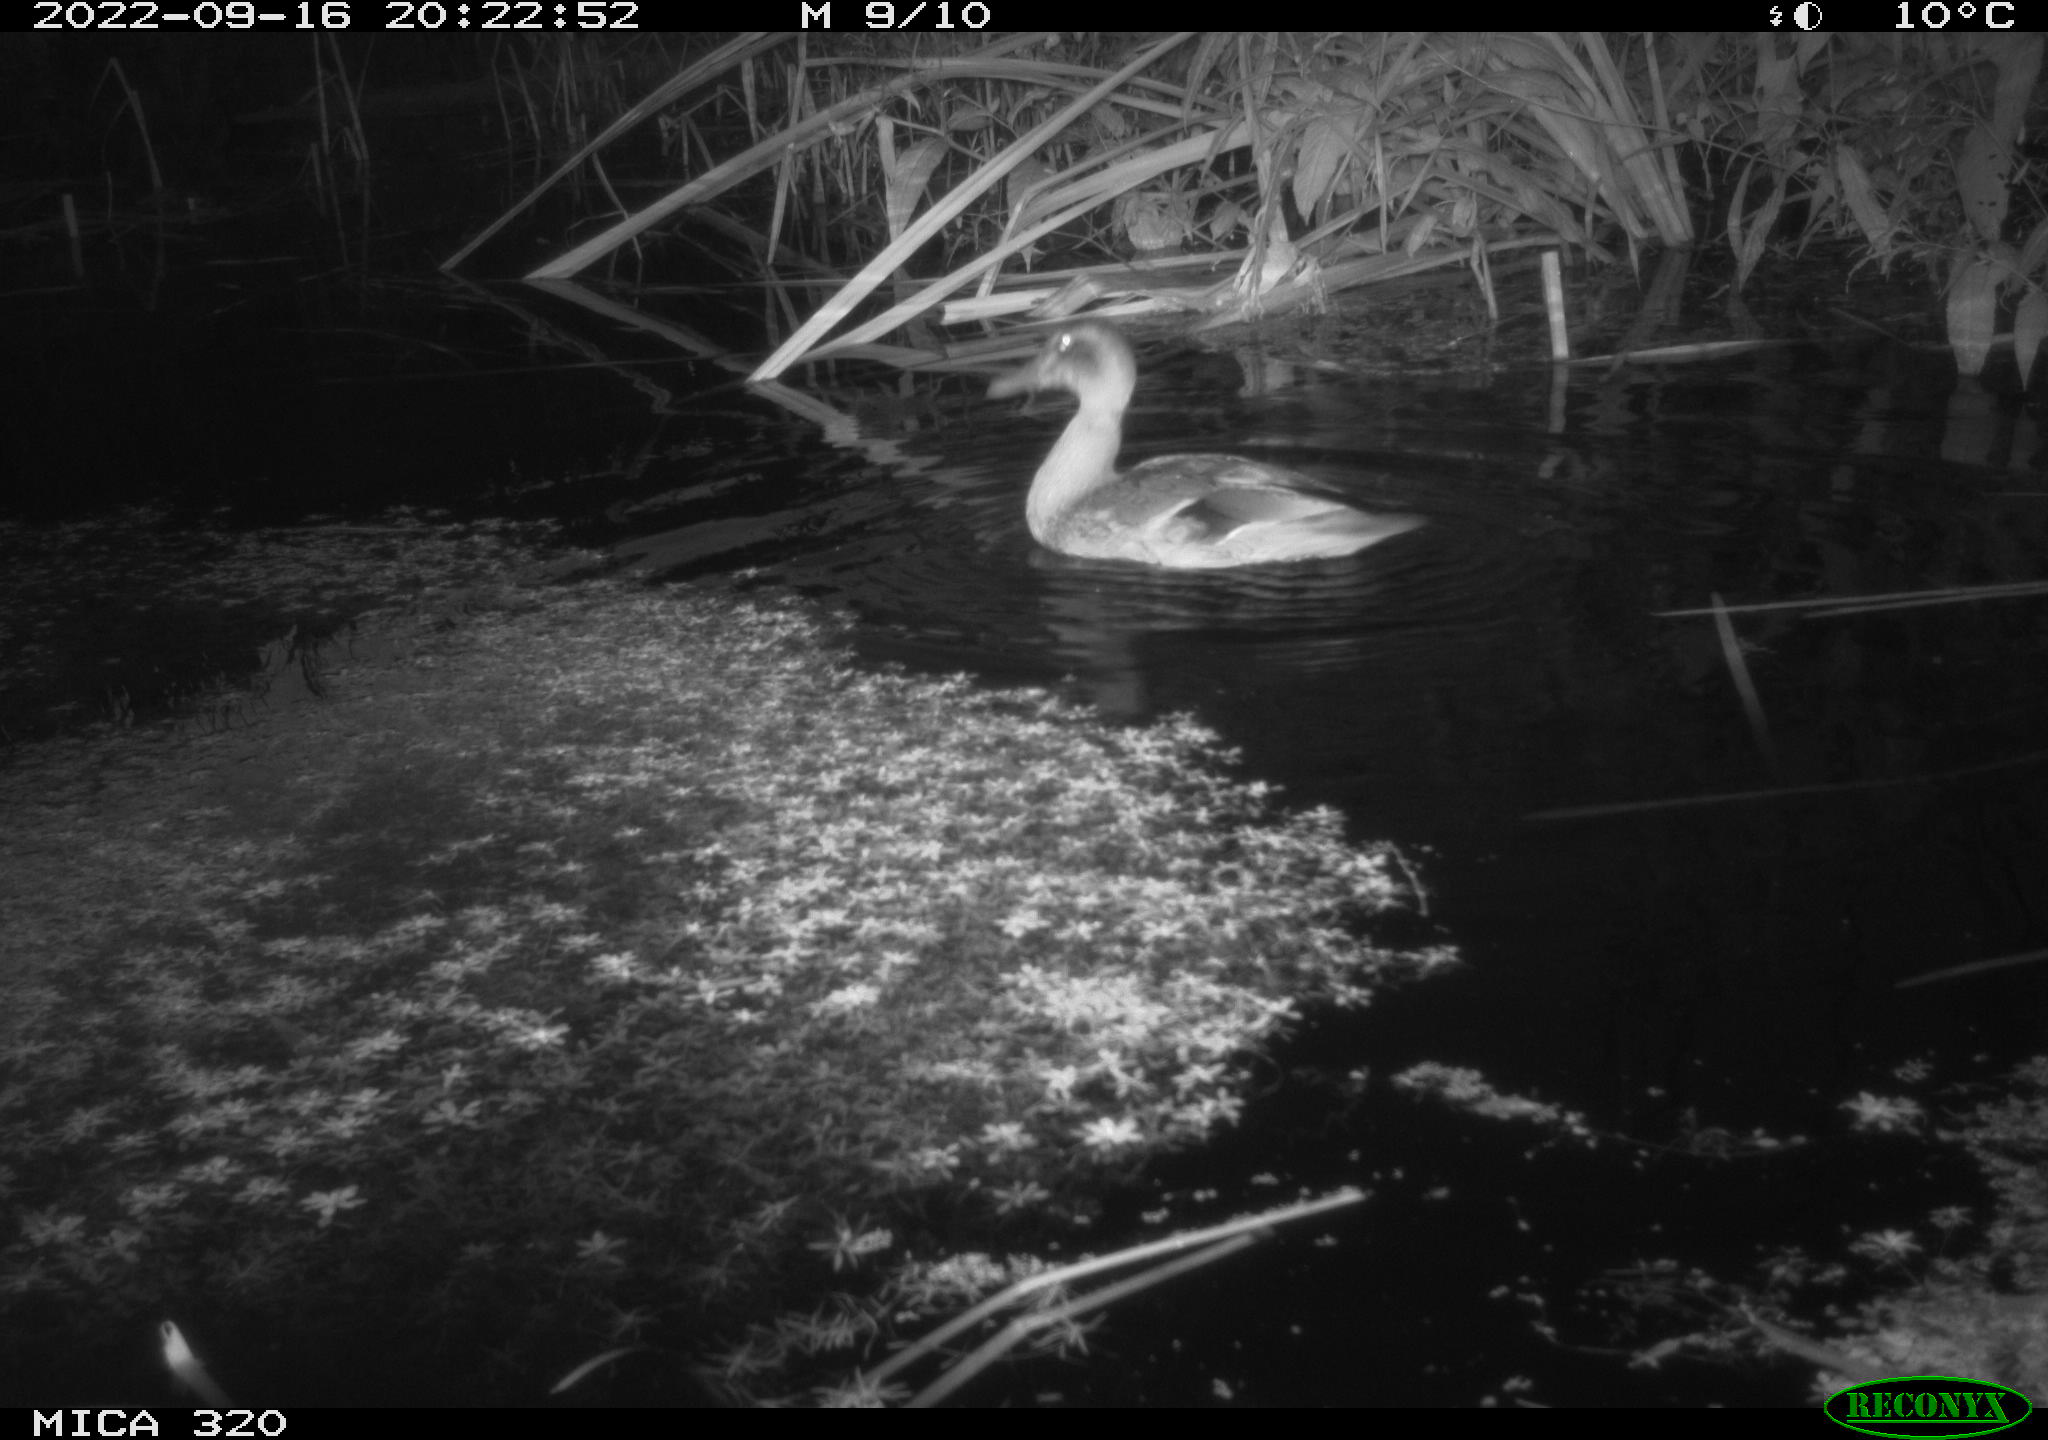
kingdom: Animalia
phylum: Chordata
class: Aves
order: Anseriformes
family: Anatidae
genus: Anas
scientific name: Anas platyrhynchos
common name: Mallard
